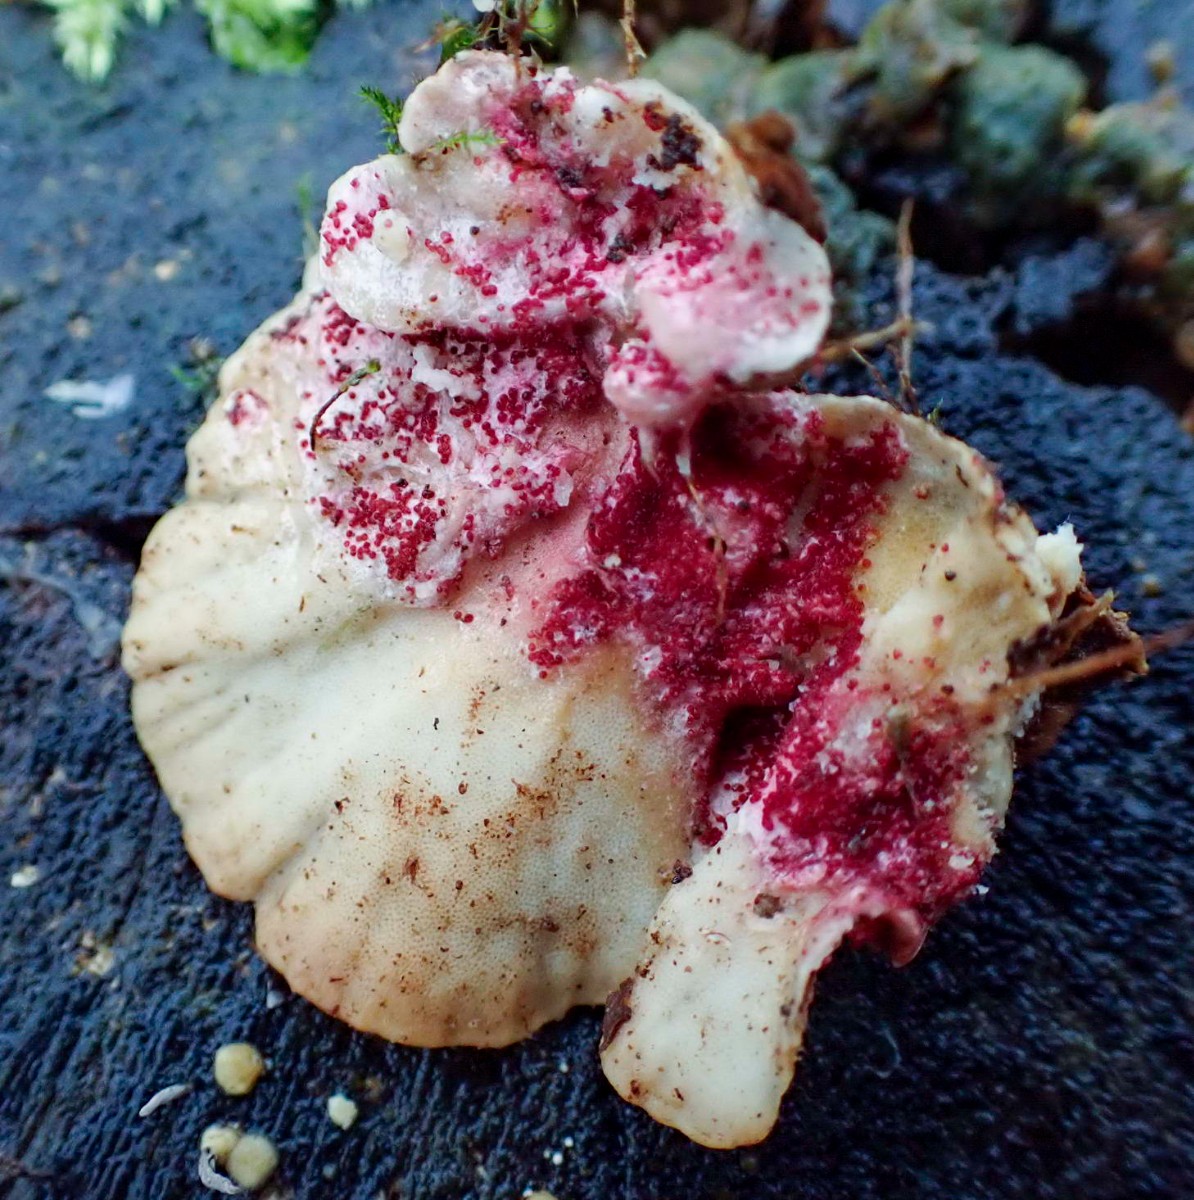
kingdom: Fungi
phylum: Ascomycota
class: Sordariomycetes
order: Hypocreales
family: Hypocreaceae
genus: Hypomyces
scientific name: Hypomyces rosellus
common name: rosa snylteskorpe
